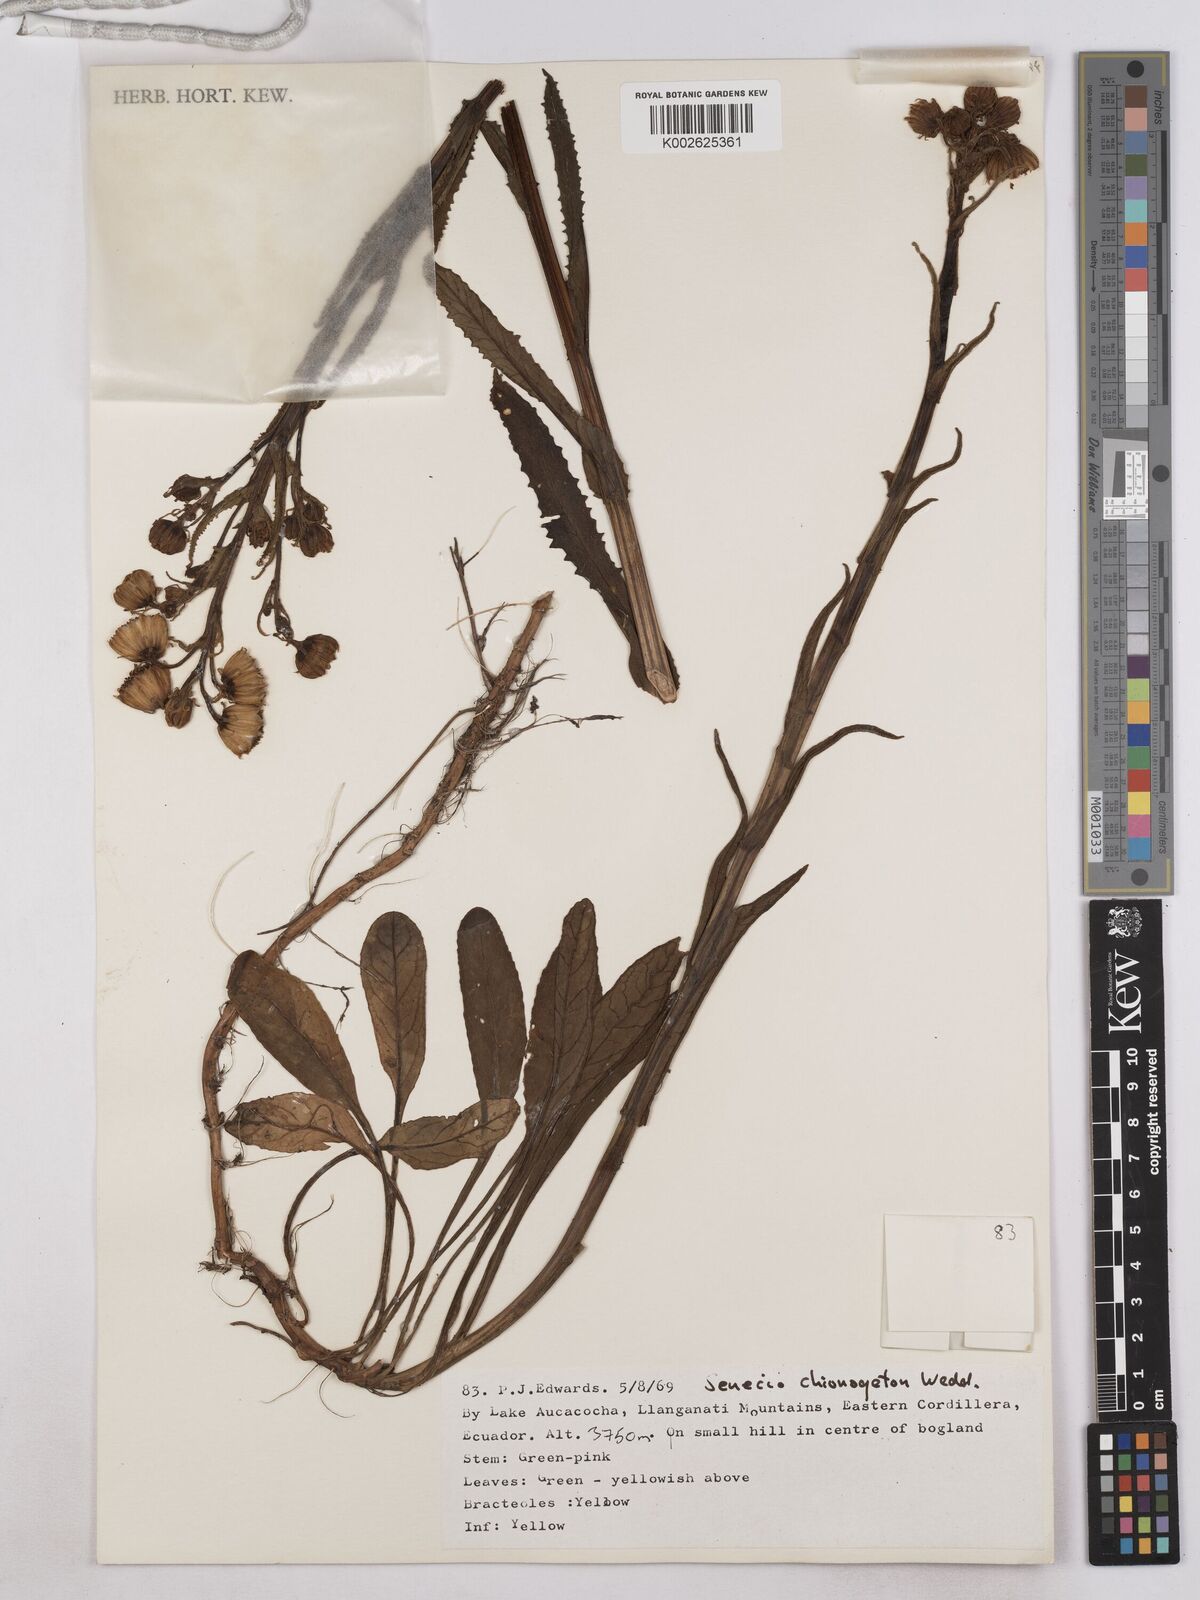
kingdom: Plantae
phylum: Tracheophyta
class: Magnoliopsida
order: Asterales
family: Asteraceae
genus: Senecio
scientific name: Senecio chionogeton
